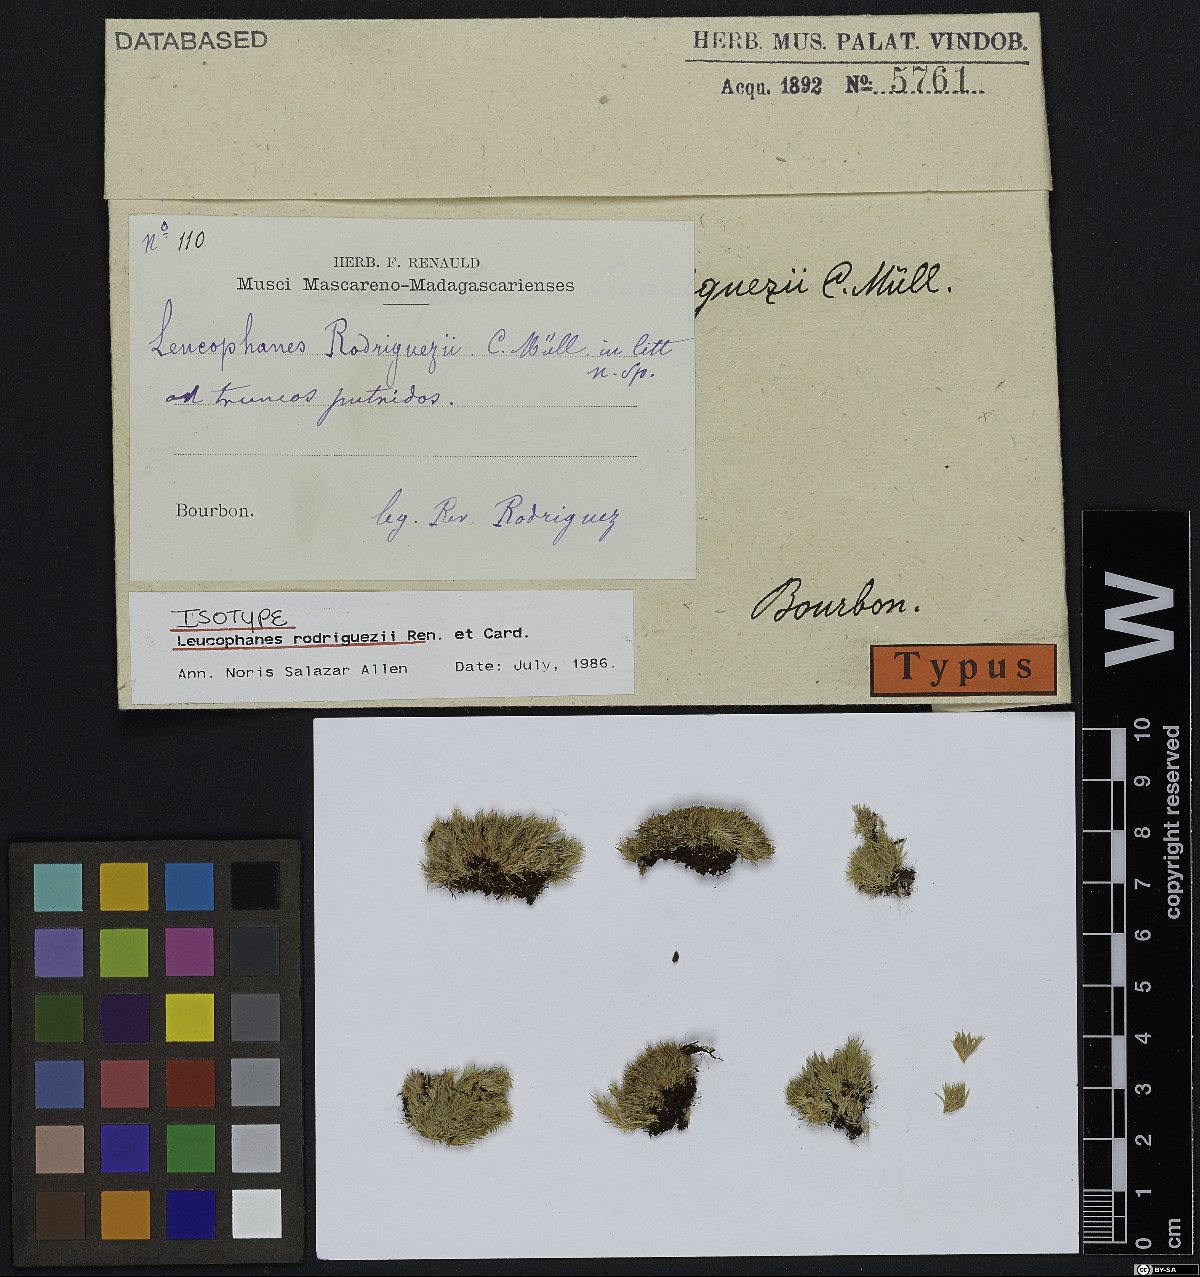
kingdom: Plantae
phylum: Bryophyta
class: Bryopsida
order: Dicranales
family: Calymperaceae
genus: Leucophanes
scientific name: Leucophanes rodriguezii
